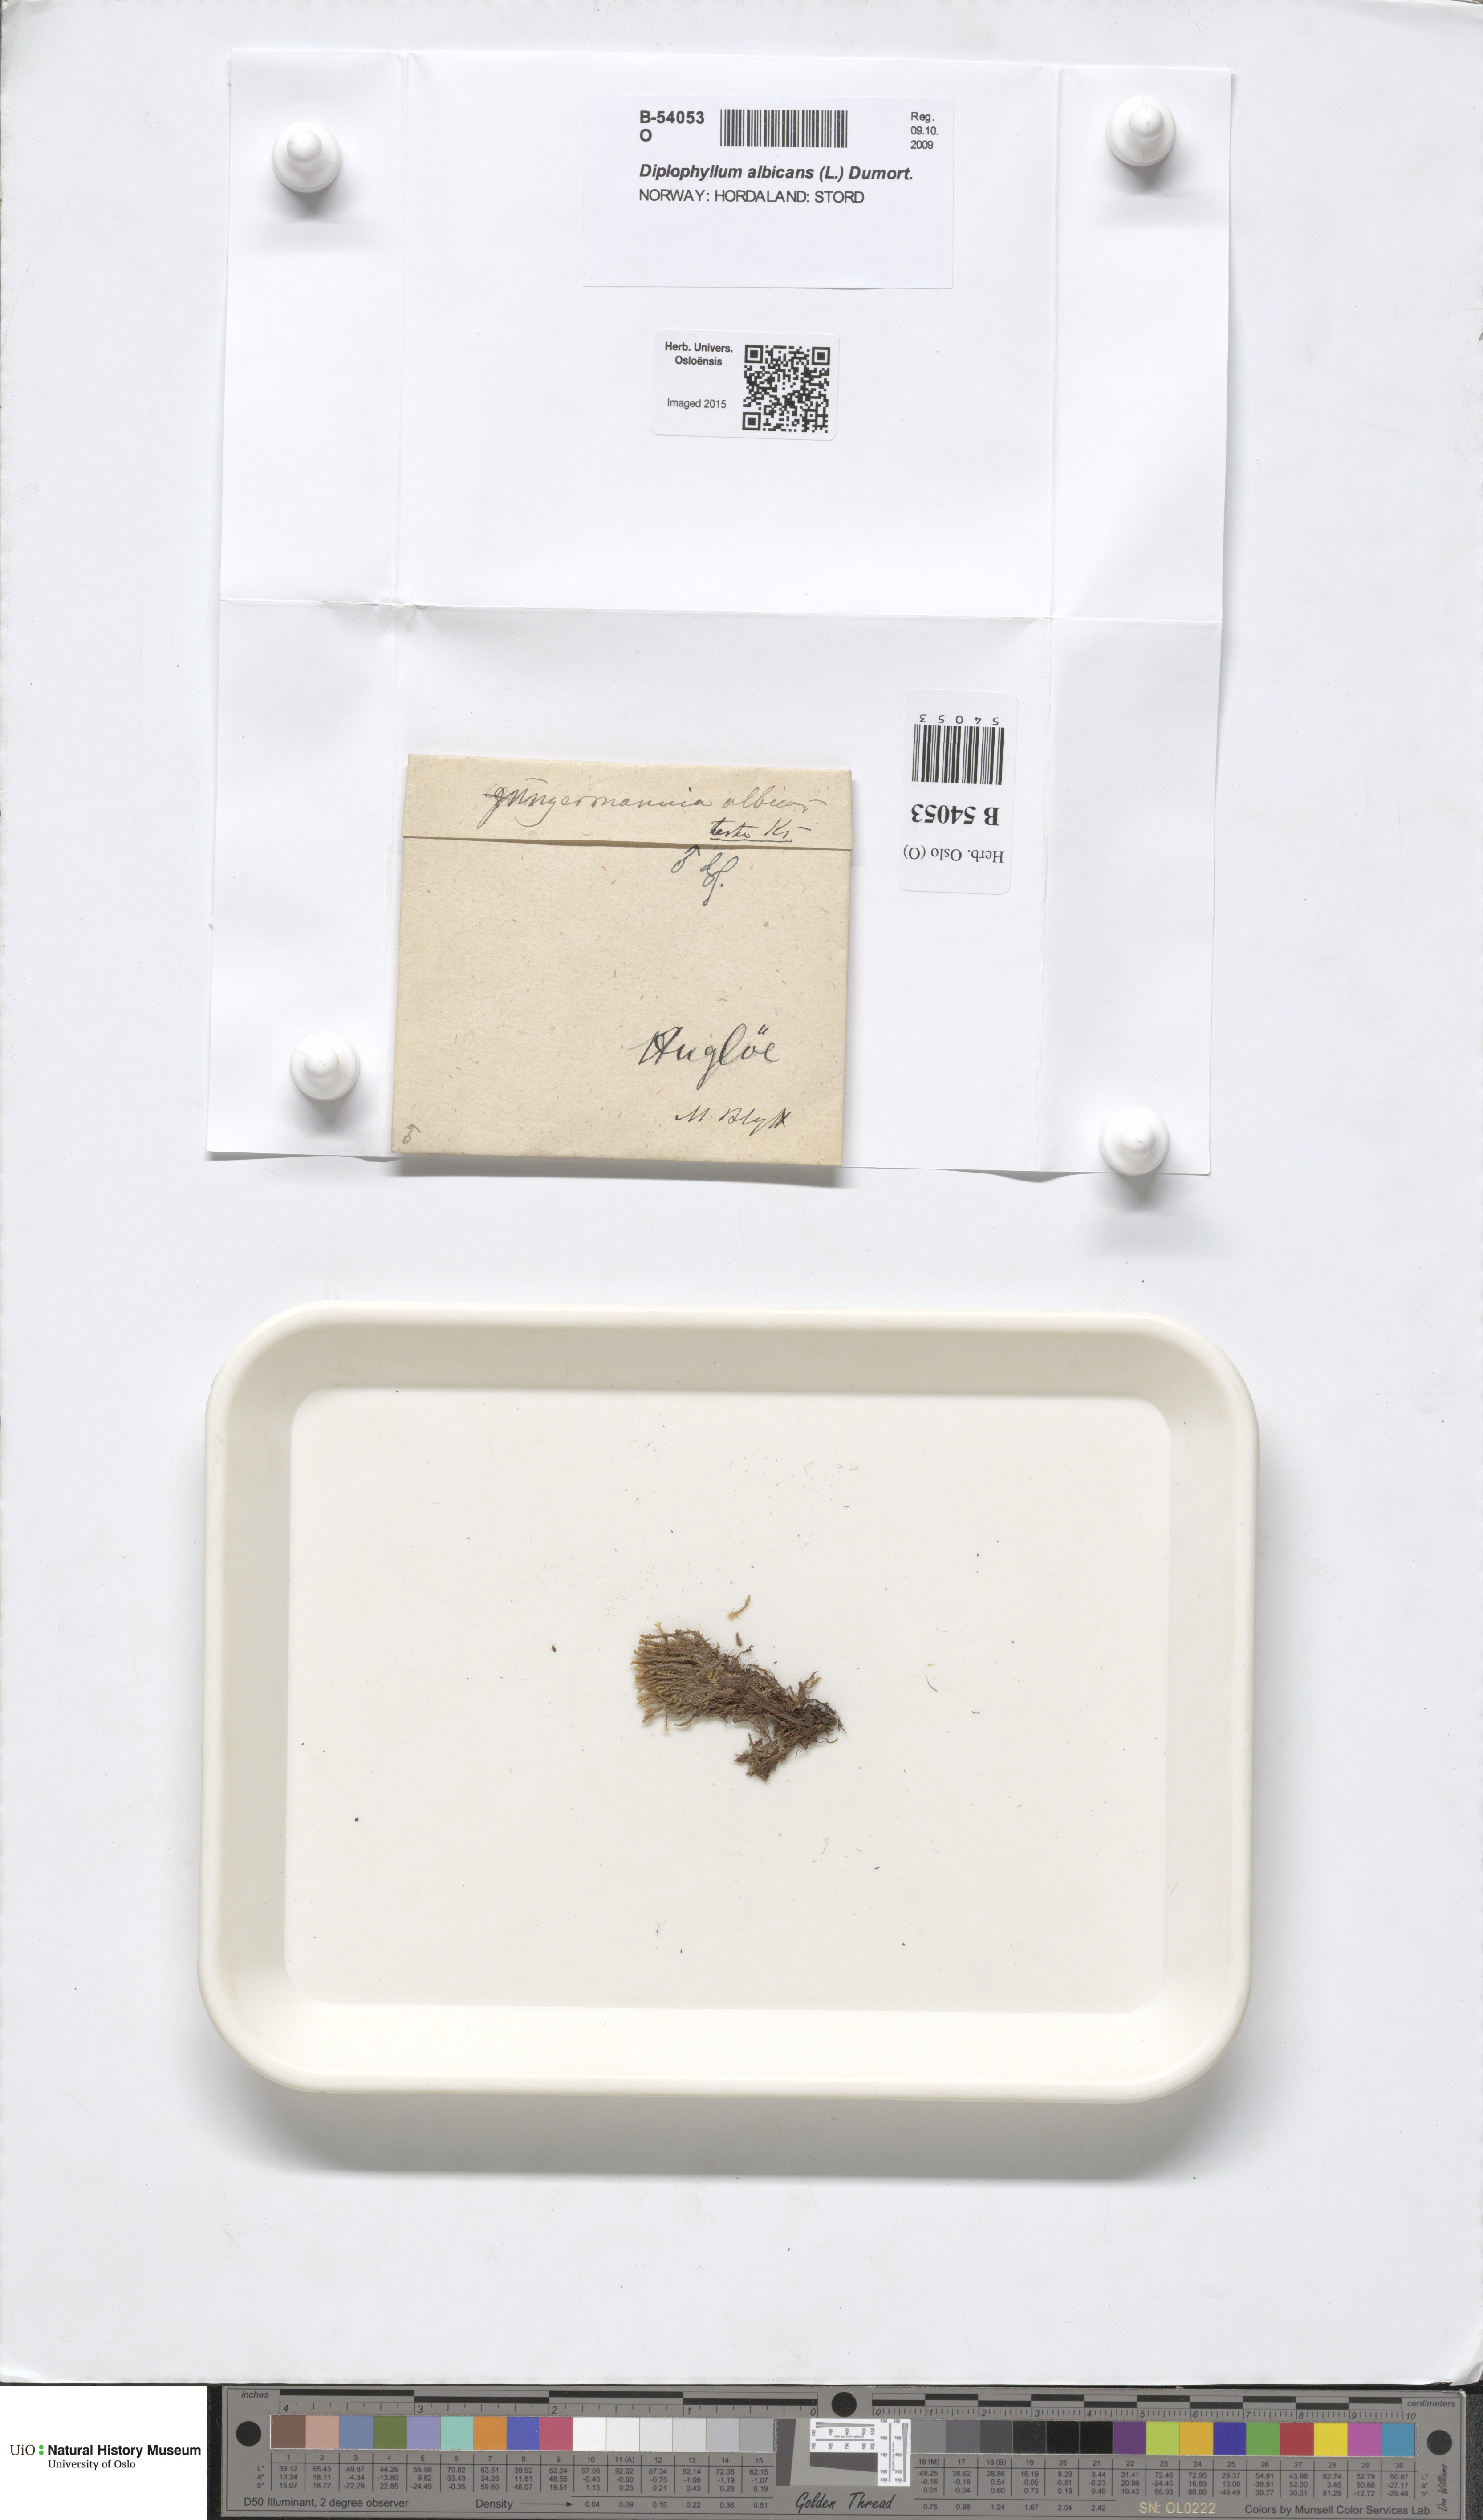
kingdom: Plantae
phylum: Marchantiophyta
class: Jungermanniopsida
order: Jungermanniales
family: Scapaniaceae
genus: Diplophyllum
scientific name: Diplophyllum albicans
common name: White earwort
